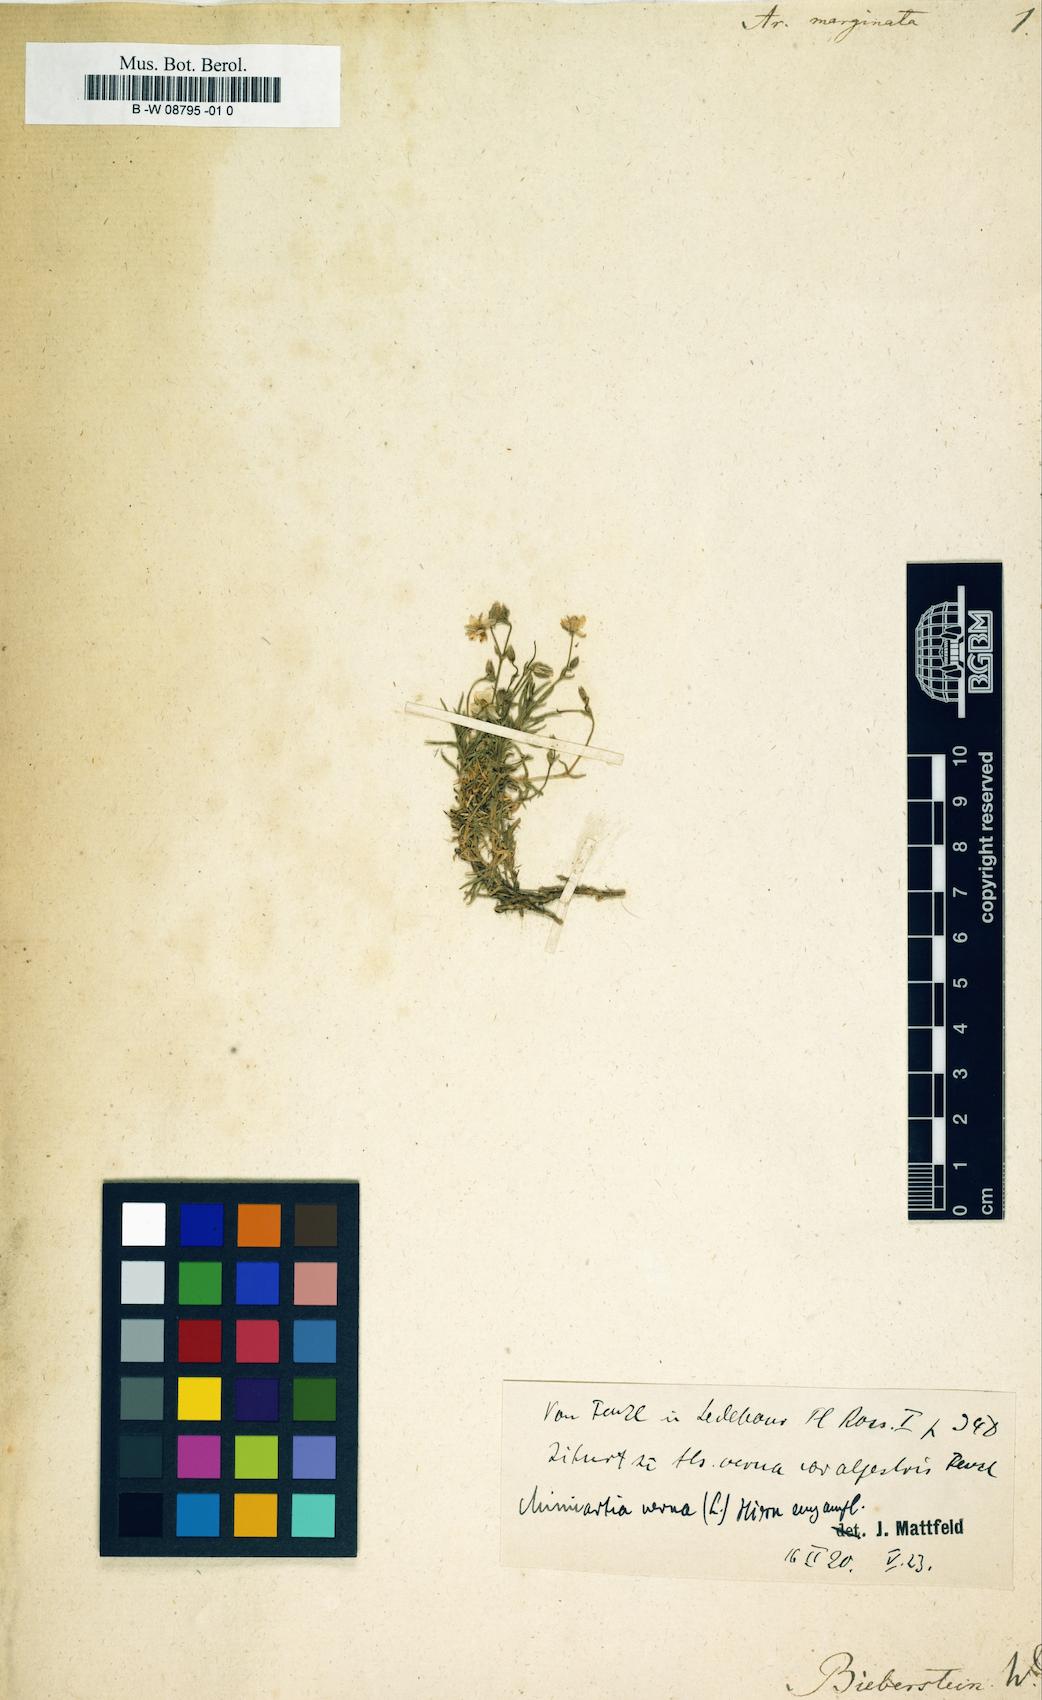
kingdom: Plantae
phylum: Tracheophyta
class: Magnoliopsida
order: Caryophyllales
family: Caryophyllaceae
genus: Sabulina
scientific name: Sabulina verna
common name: Spring sandwort
